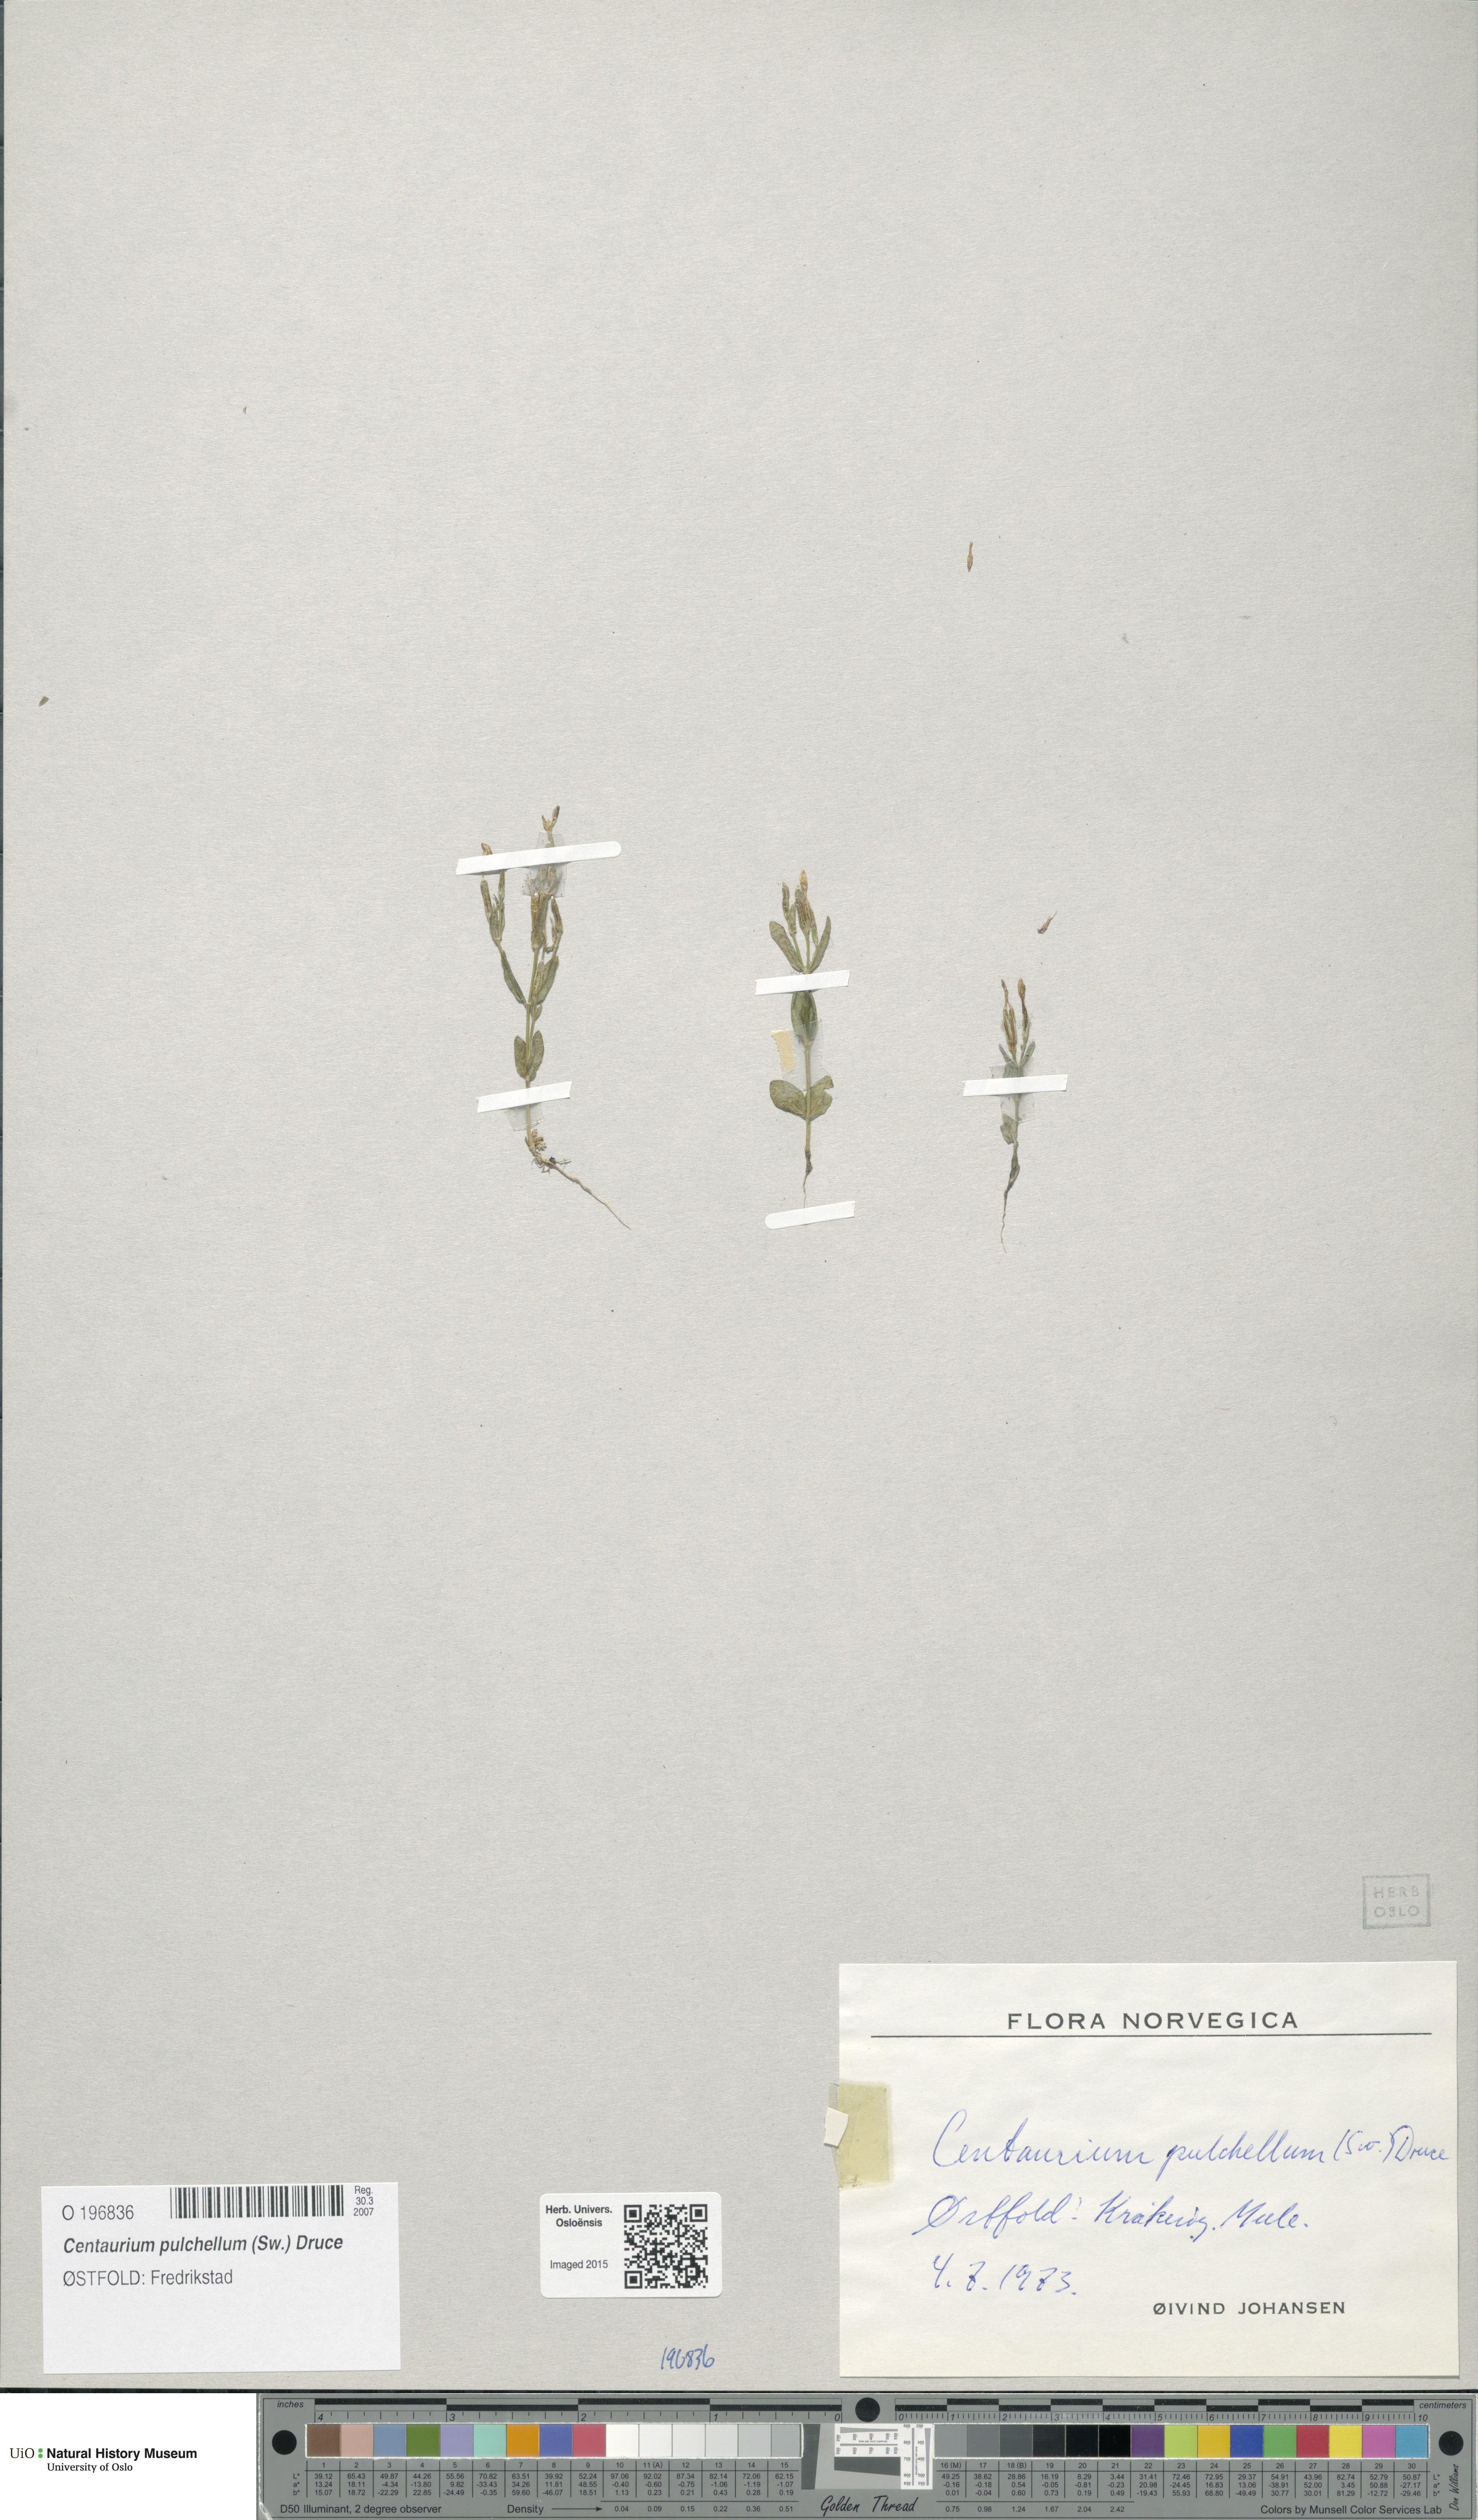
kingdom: Plantae
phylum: Tracheophyta
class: Magnoliopsida
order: Gentianales
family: Gentianaceae
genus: Centaurium
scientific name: Centaurium pulchellum
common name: Lesser centaury
